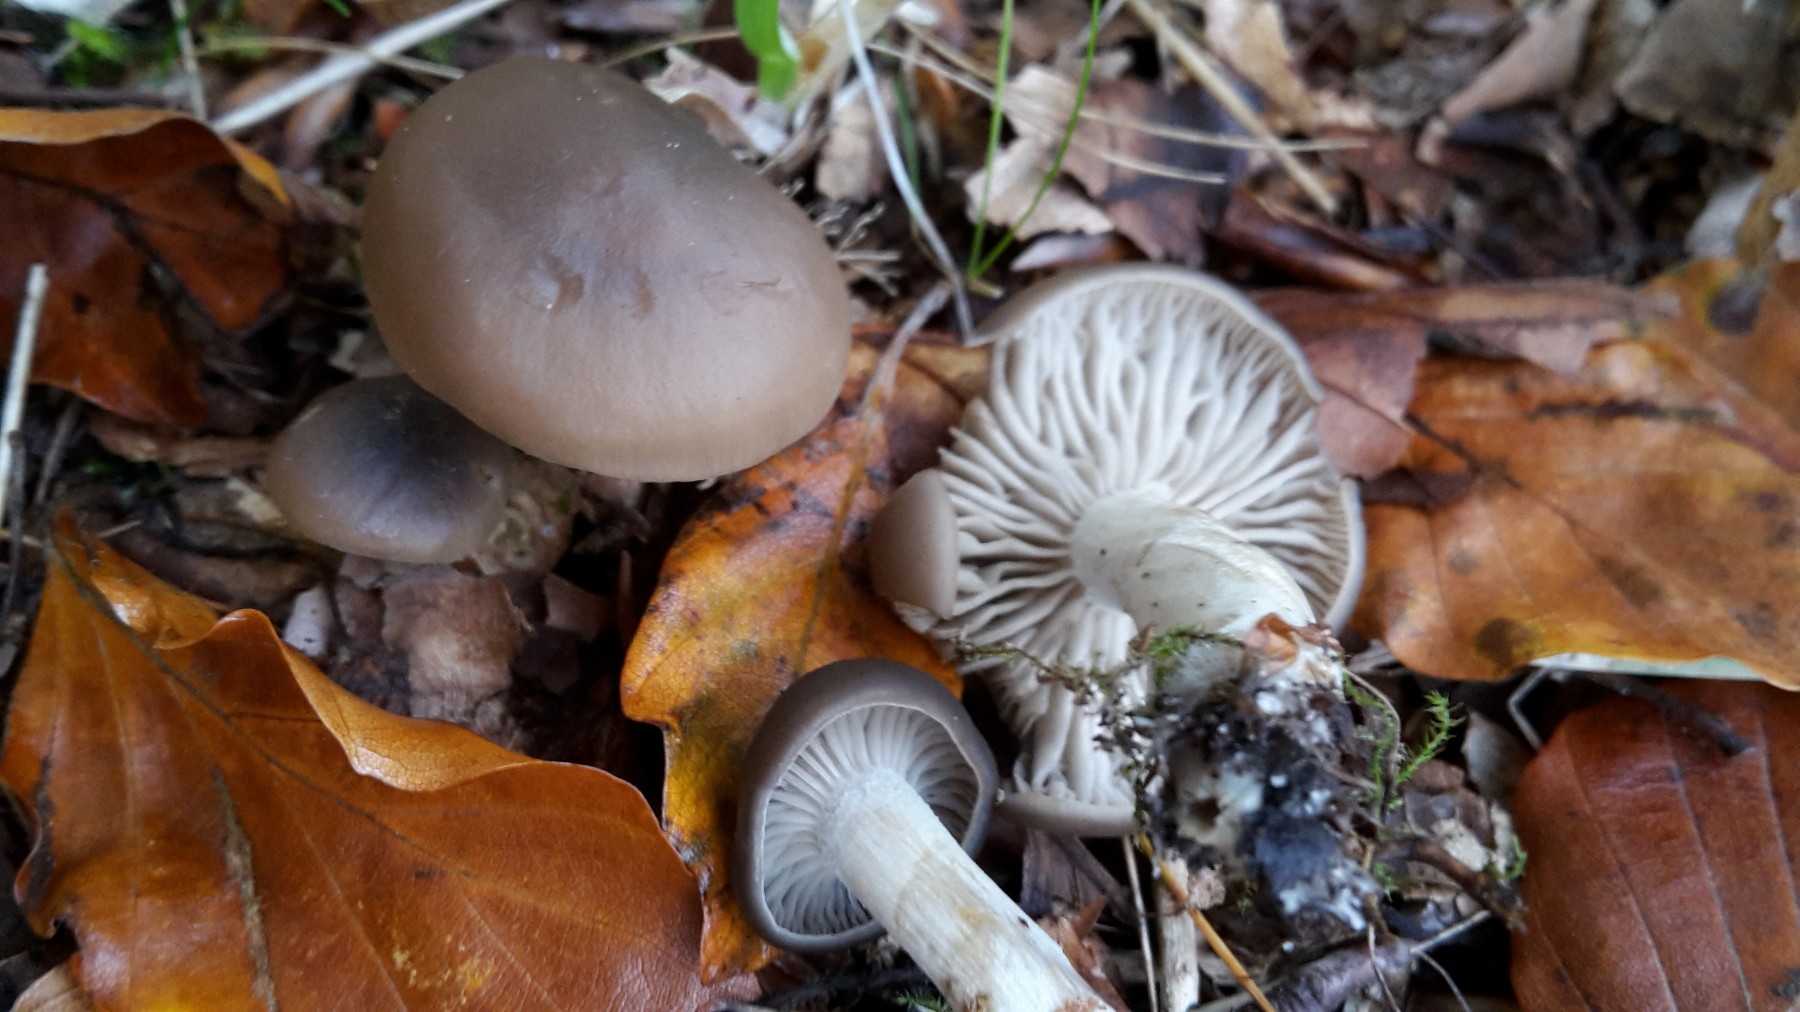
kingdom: Fungi
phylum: Basidiomycota
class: Agaricomycetes
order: Agaricales
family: Lyophyllaceae
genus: Lyophyllum
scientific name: Lyophyllum
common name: gråblad
